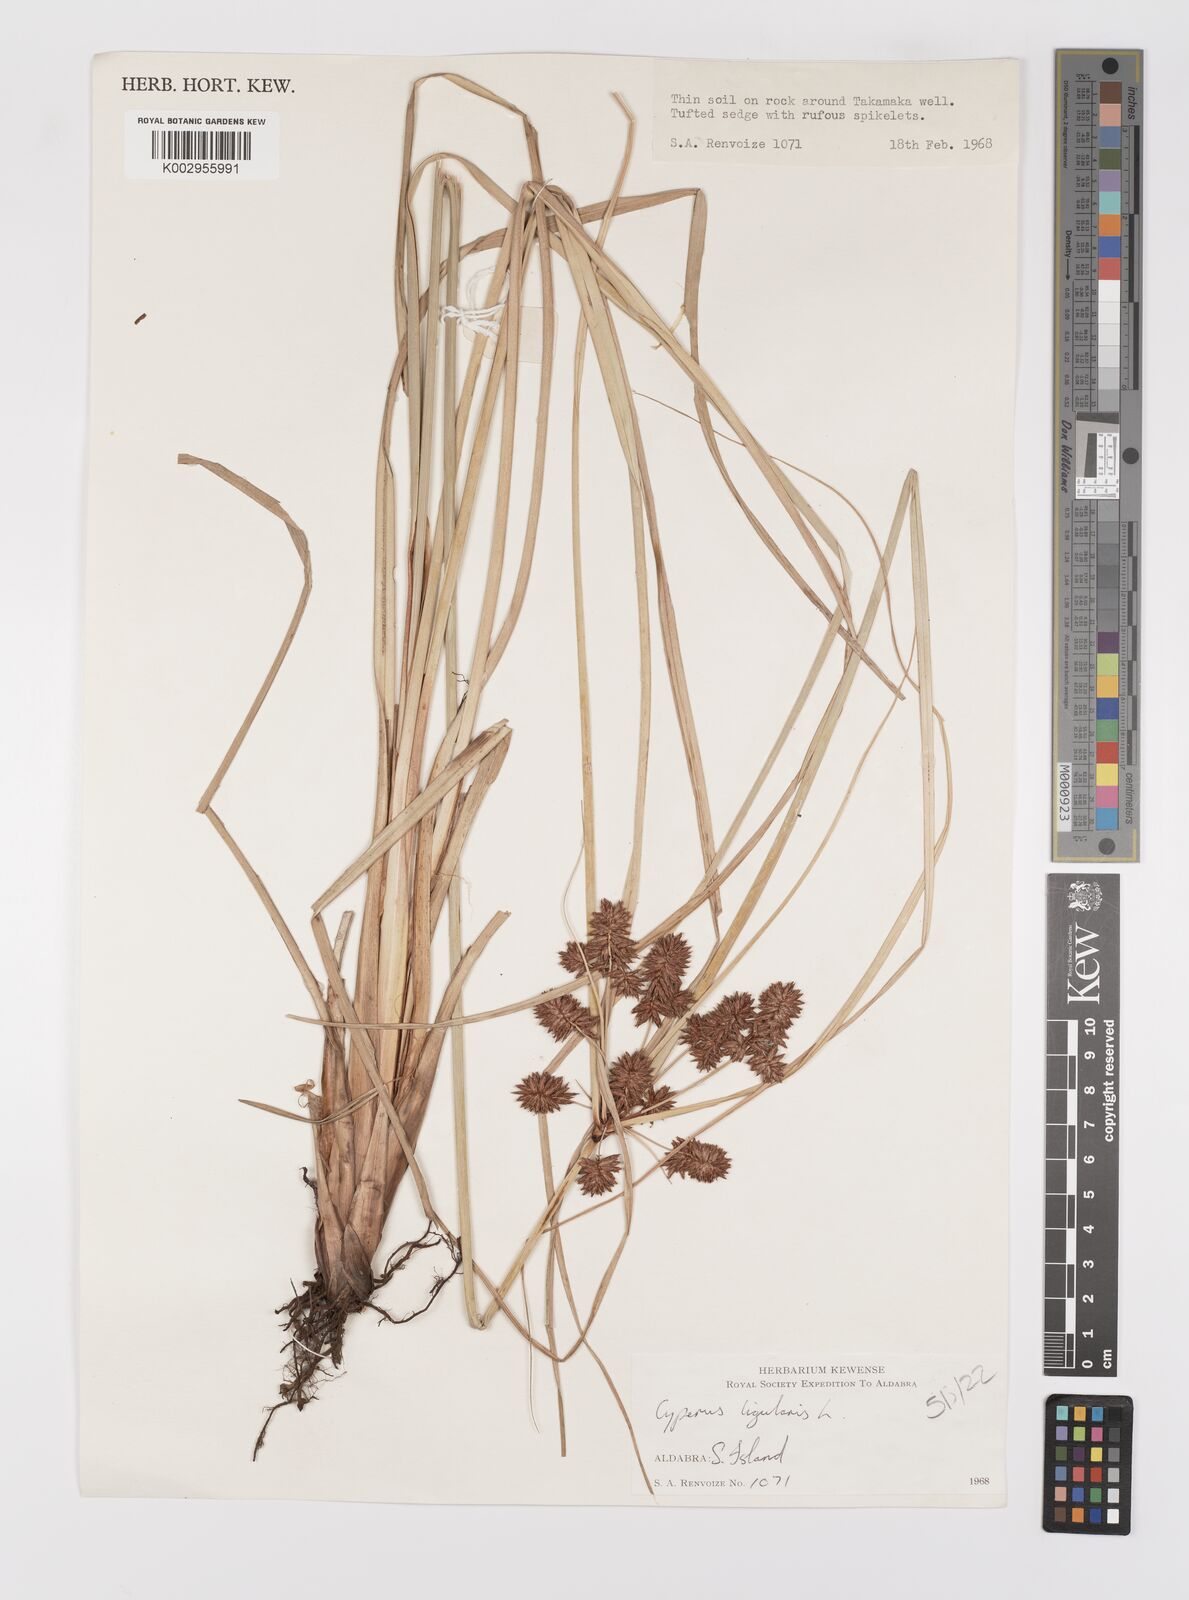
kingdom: Plantae
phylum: Tracheophyta
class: Liliopsida
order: Poales
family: Cyperaceae
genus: Cyperus
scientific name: Cyperus ligularis
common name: Swamp flat sedge
